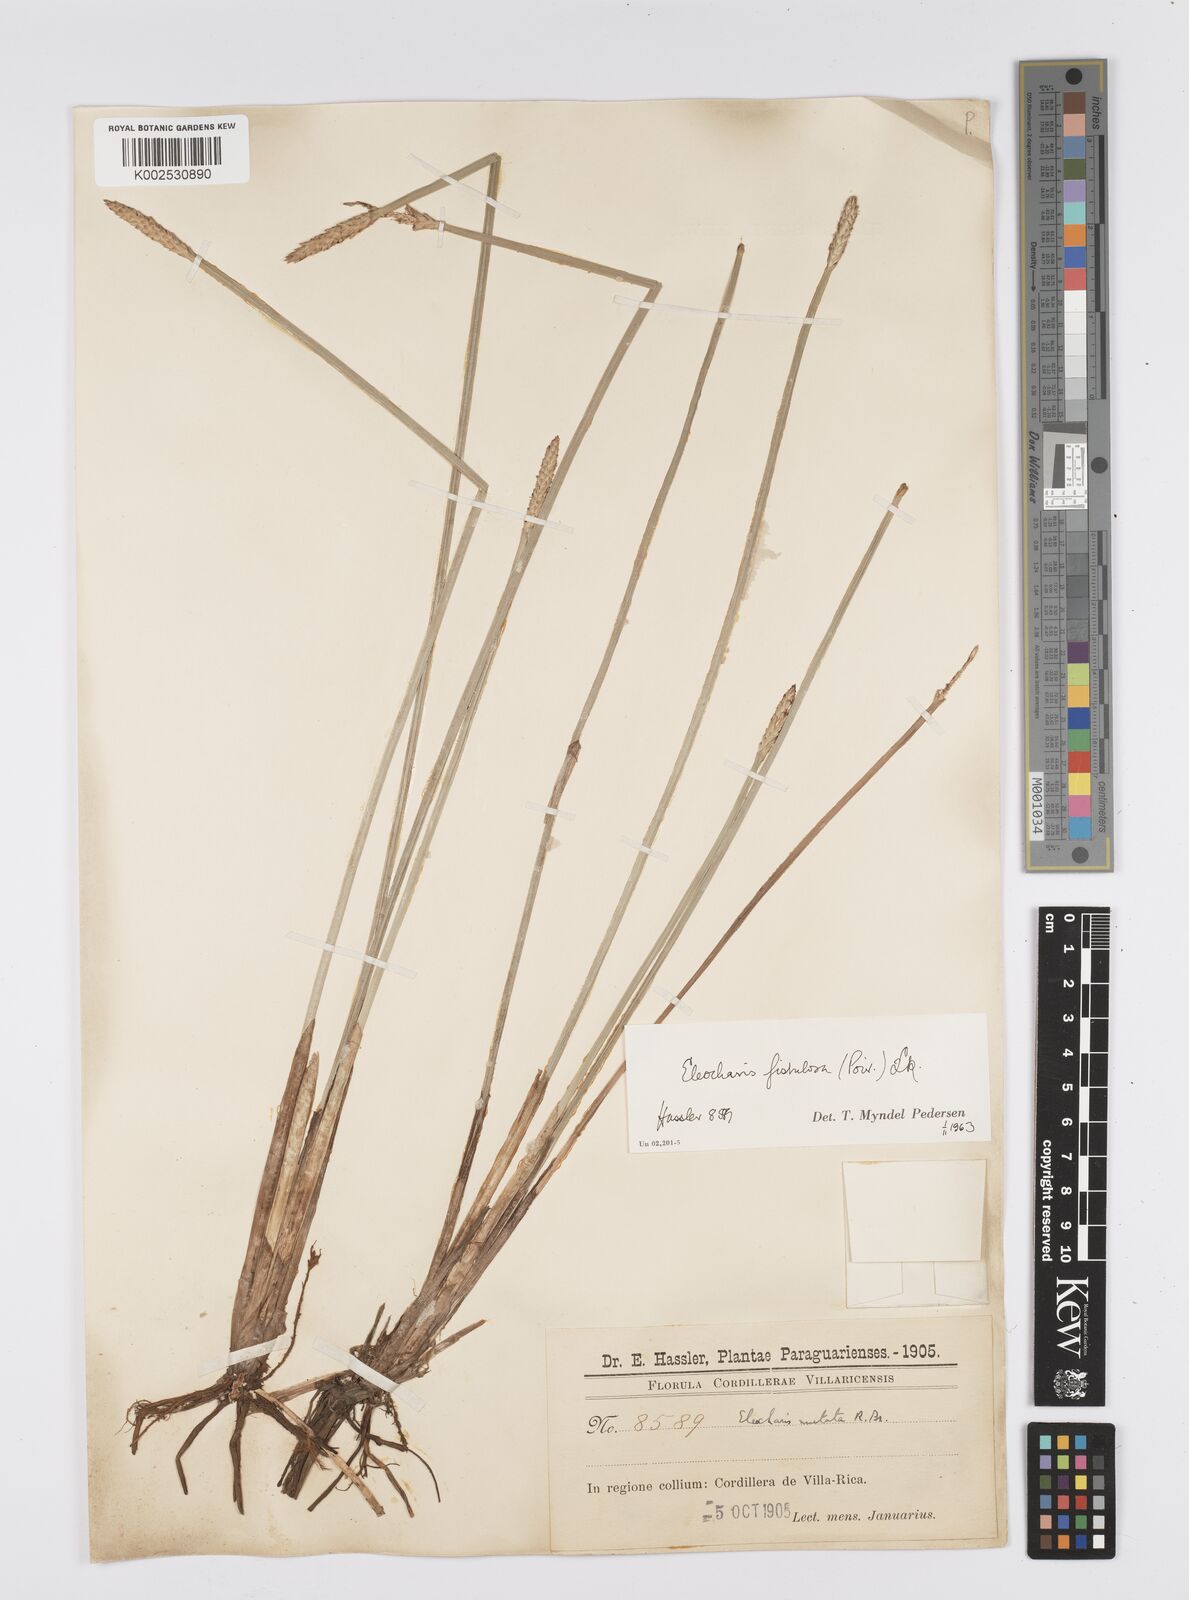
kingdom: Plantae
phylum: Tracheophyta
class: Liliopsida
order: Poales
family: Cyperaceae
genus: Eleocharis
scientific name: Eleocharis acutangula
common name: Acute spikerush
